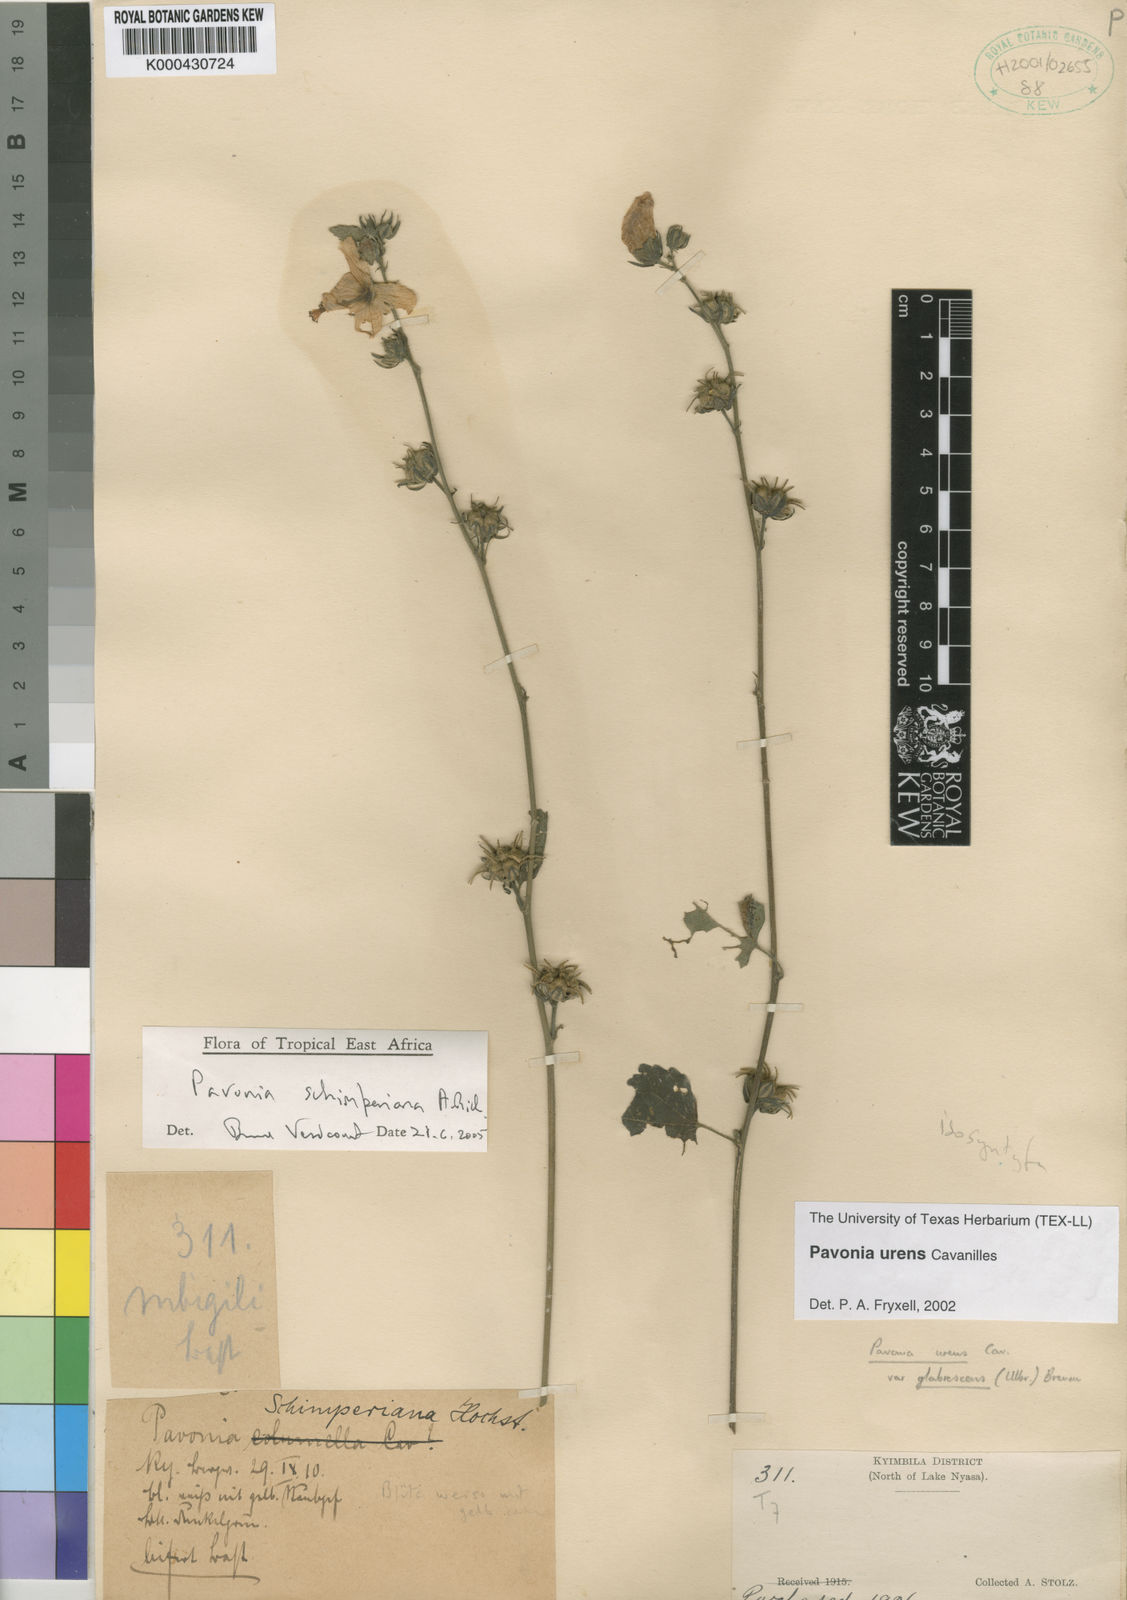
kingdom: Plantae
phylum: Tracheophyta
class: Magnoliopsida
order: Malvales
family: Malvaceae
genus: Pavonia
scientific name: Pavonia schimperiana
